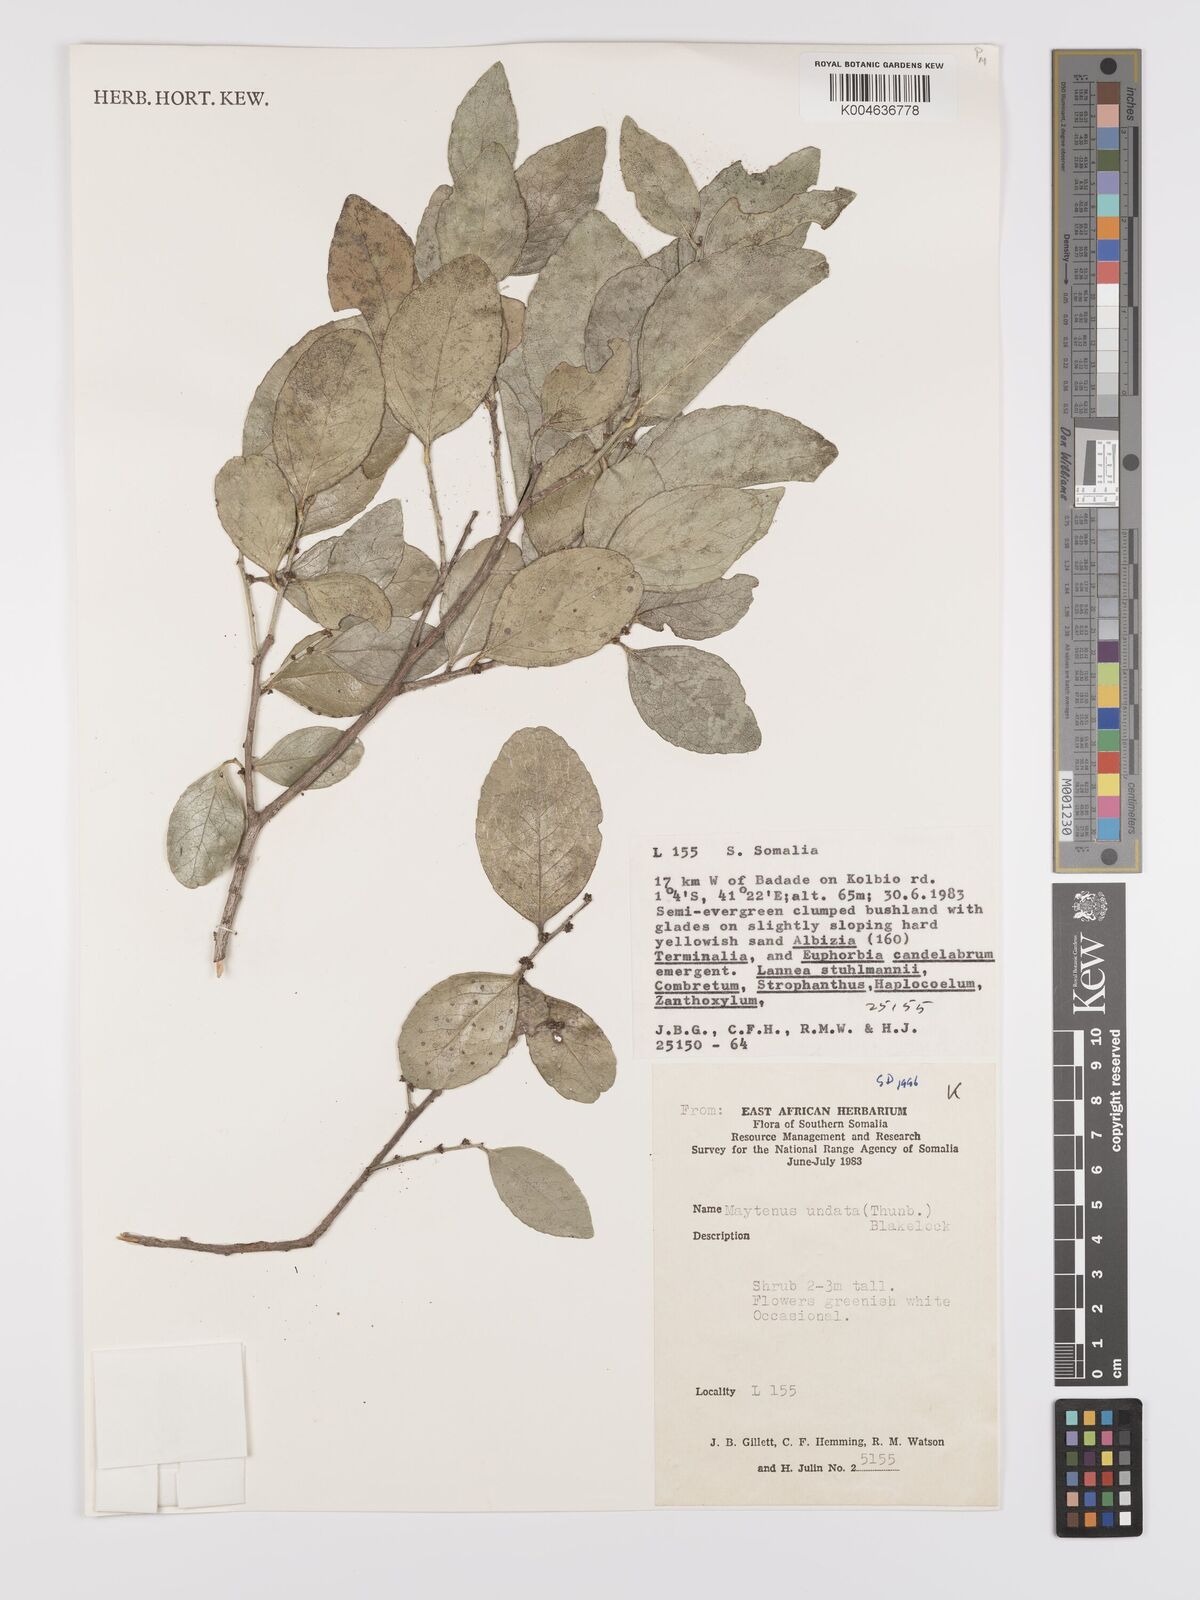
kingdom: Plantae
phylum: Tracheophyta
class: Magnoliopsida
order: Celastrales
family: Celastraceae
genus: Gymnosporia
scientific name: Gymnosporia undata
